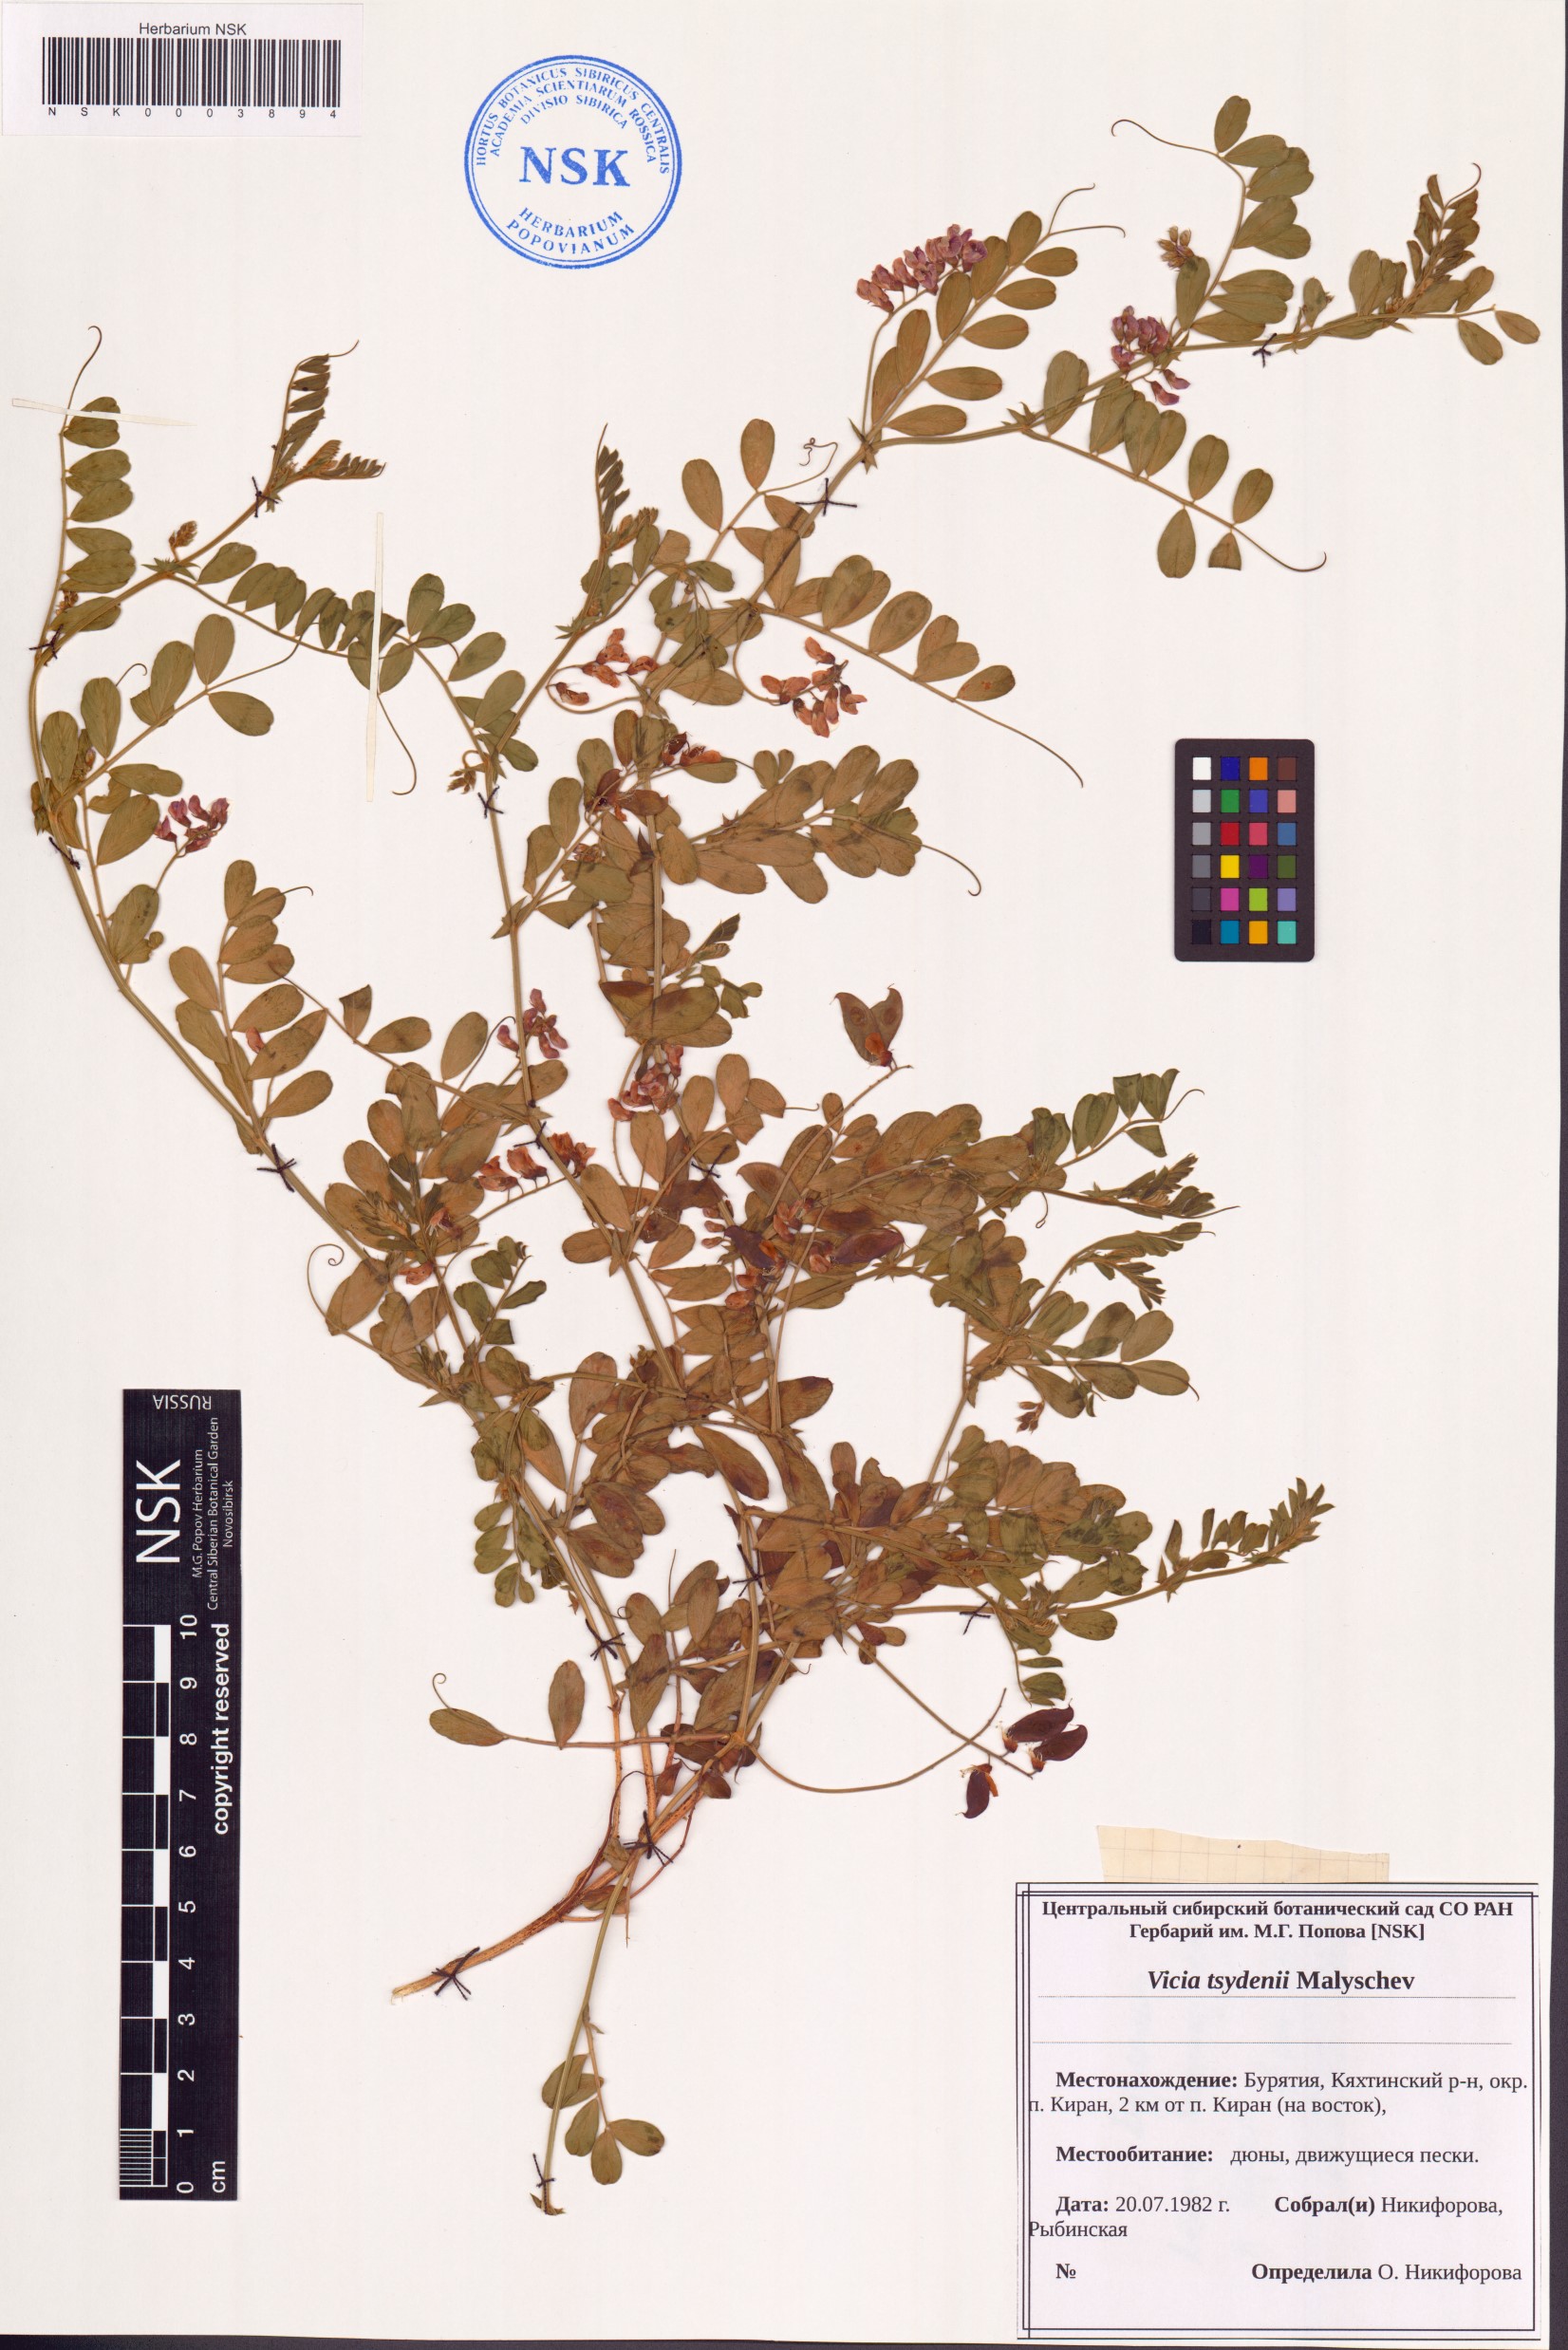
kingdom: Plantae
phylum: Tracheophyta
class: Magnoliopsida
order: Fabales
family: Fabaceae
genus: Vicia
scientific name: Vicia tsydenii
